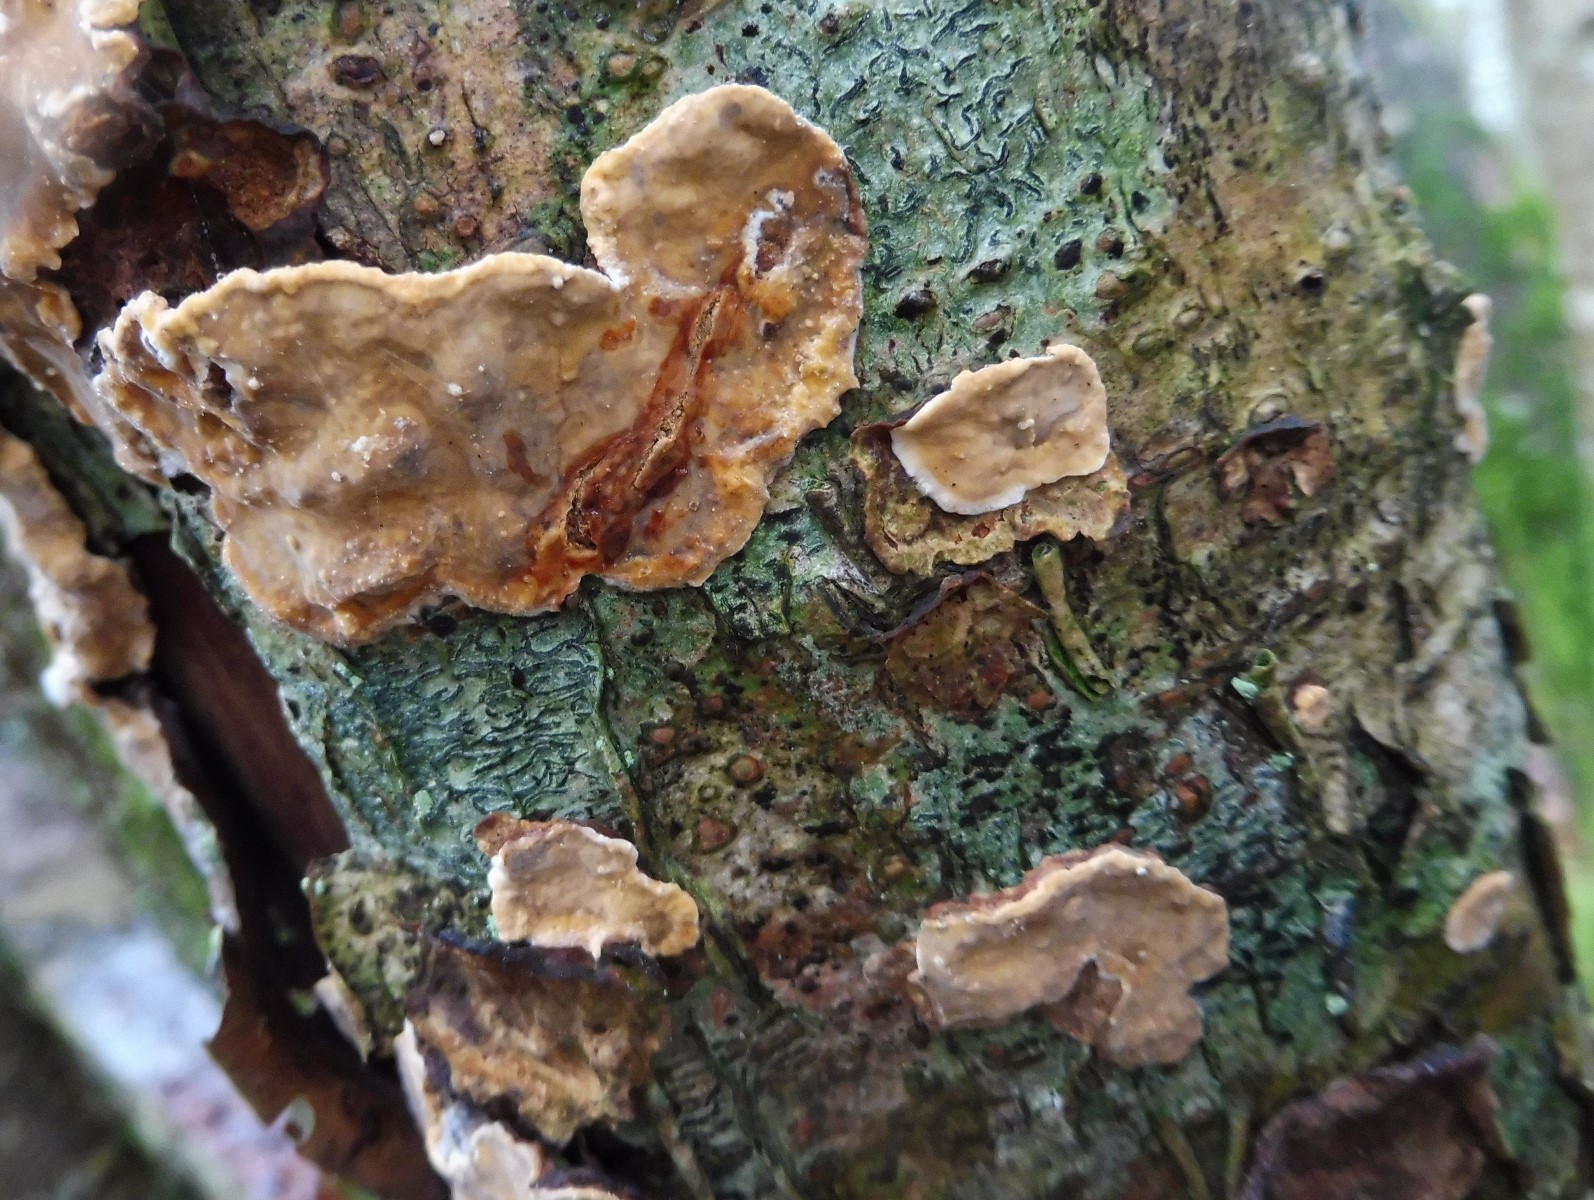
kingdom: Fungi
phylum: Basidiomycota
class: Agaricomycetes
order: Russulales
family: Stereaceae
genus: Stereum
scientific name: Stereum rugosum
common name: rynket lædersvamp
